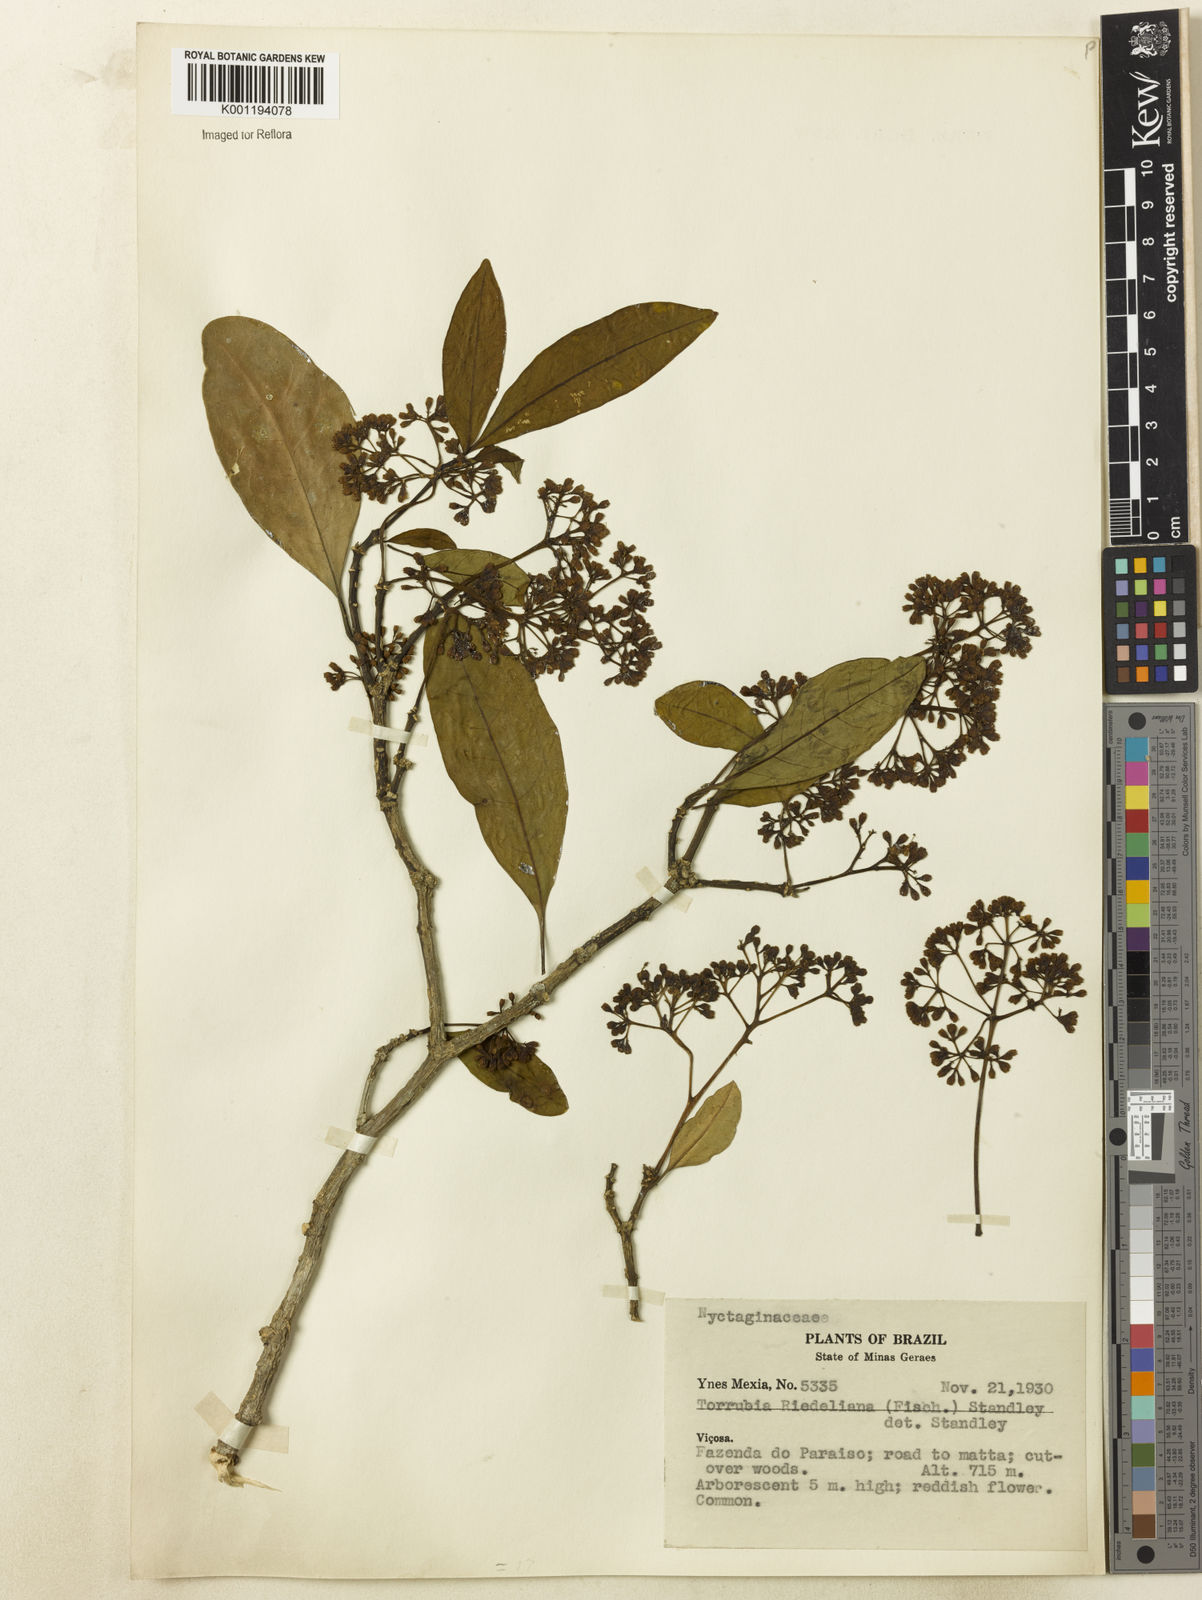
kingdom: Plantae
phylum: Tracheophyta
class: Magnoliopsida
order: Caryophyllales
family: Nyctaginaceae
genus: Guapira
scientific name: Guapira riedeliana
